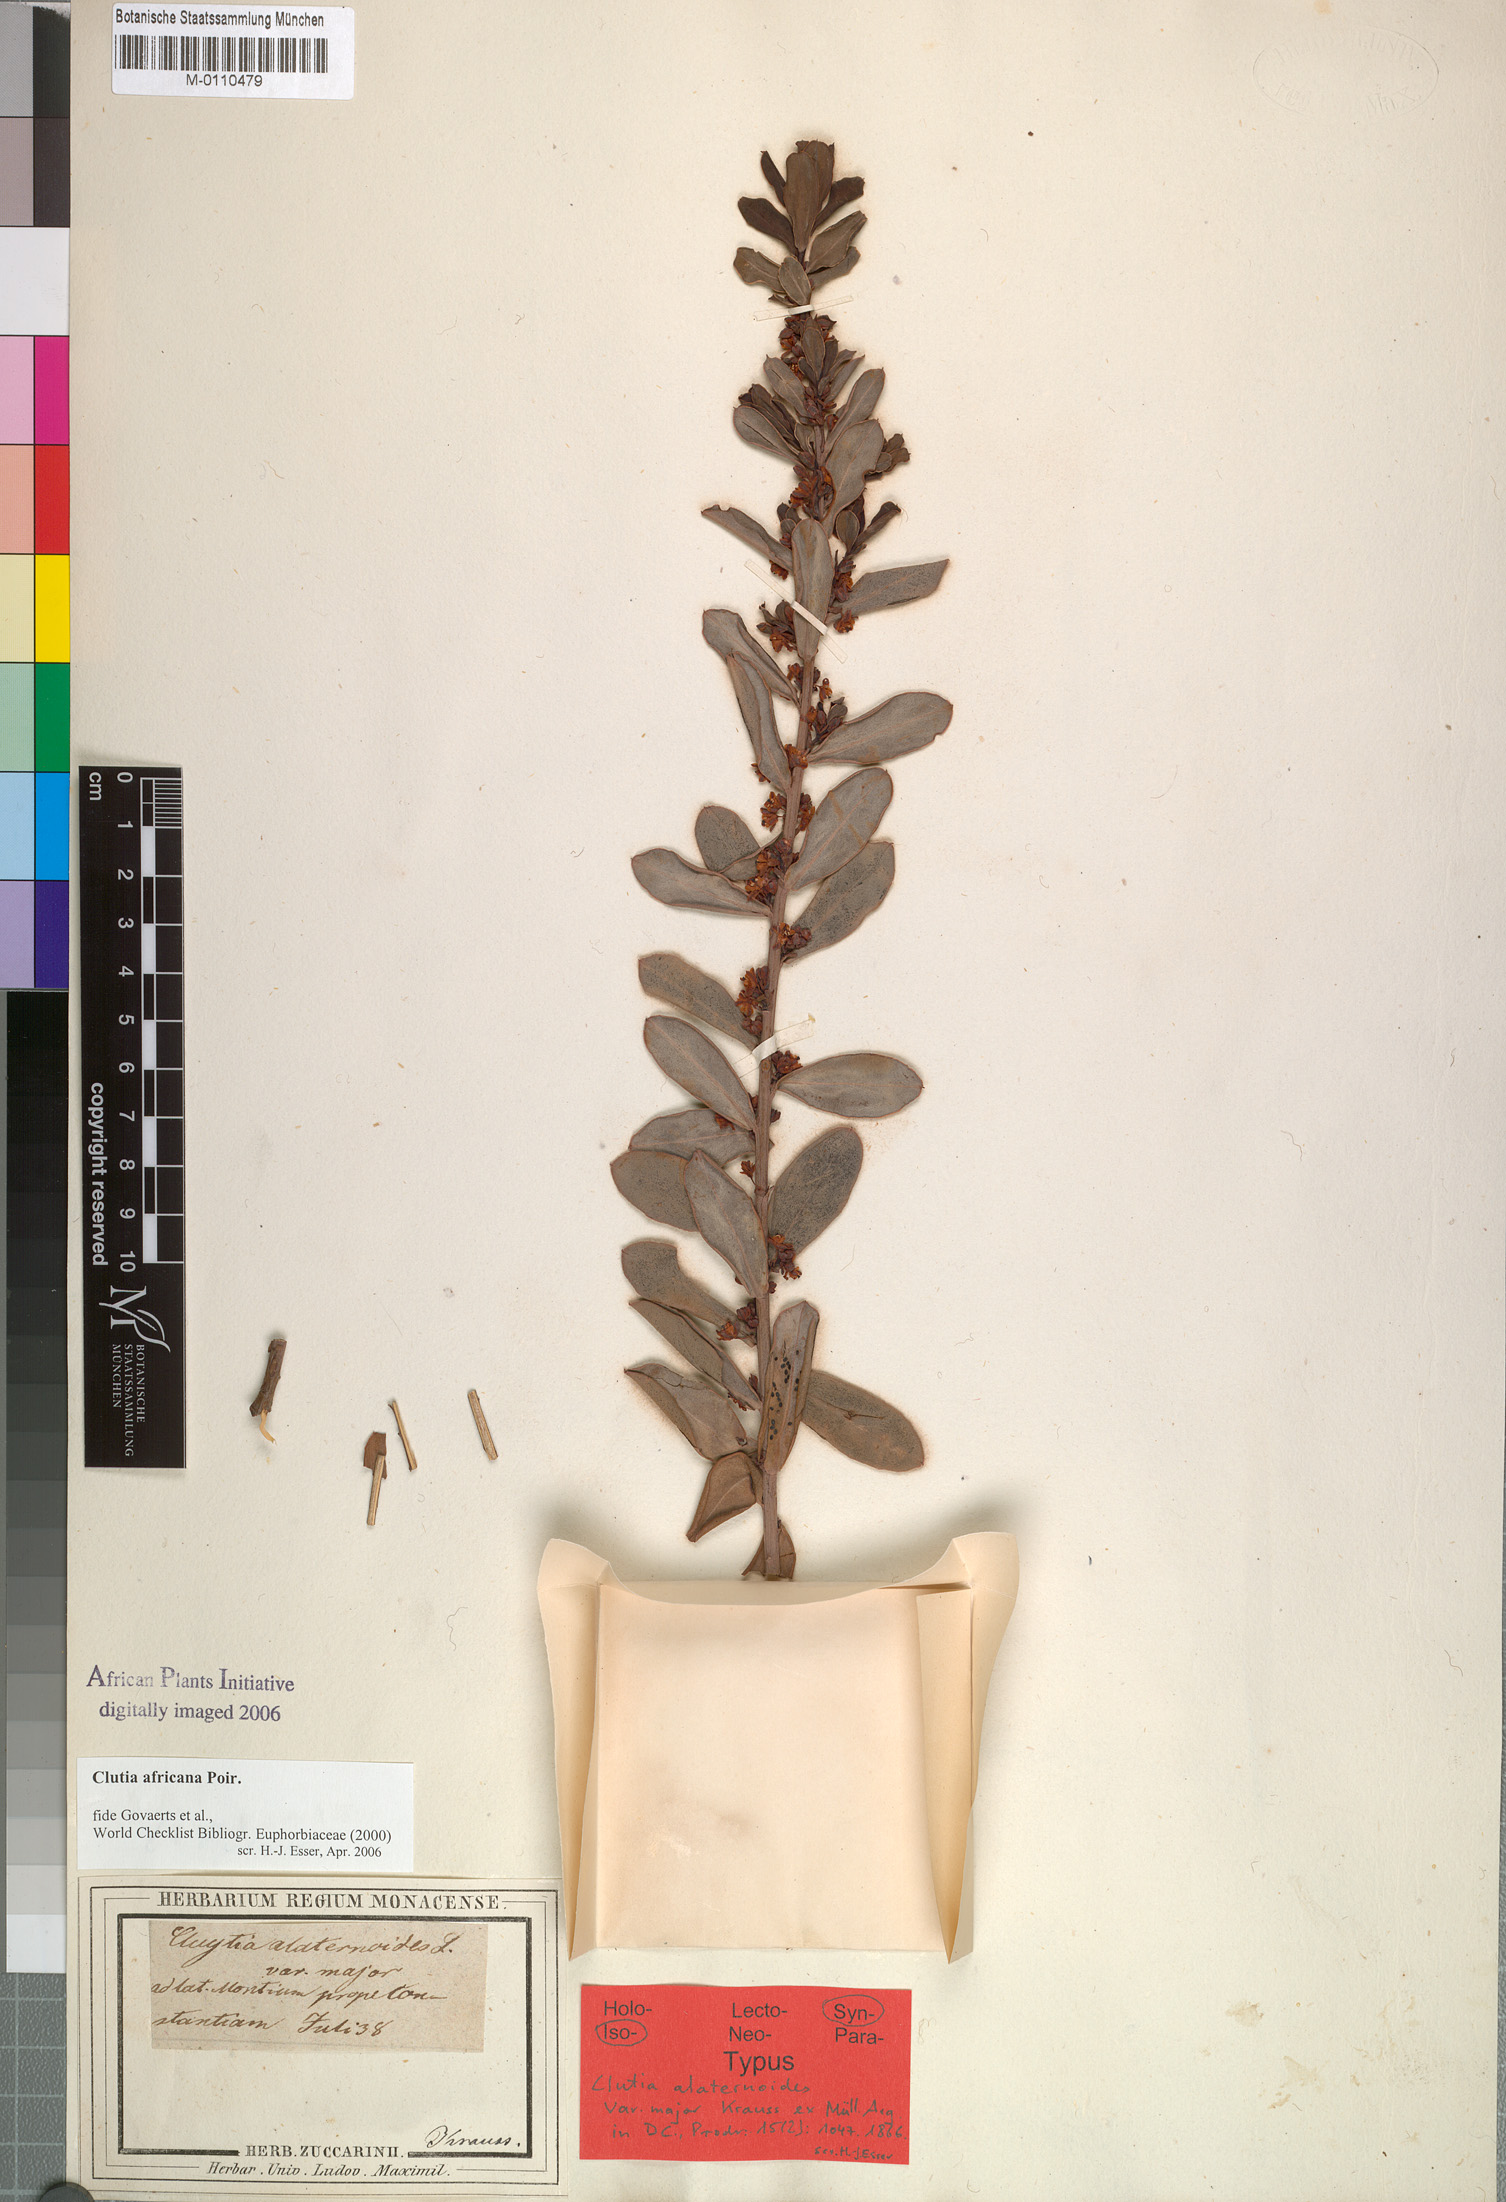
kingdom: Plantae
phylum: Tracheophyta
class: Magnoliopsida
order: Malpighiales
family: Peraceae
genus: Clutia
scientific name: Clutia africana
